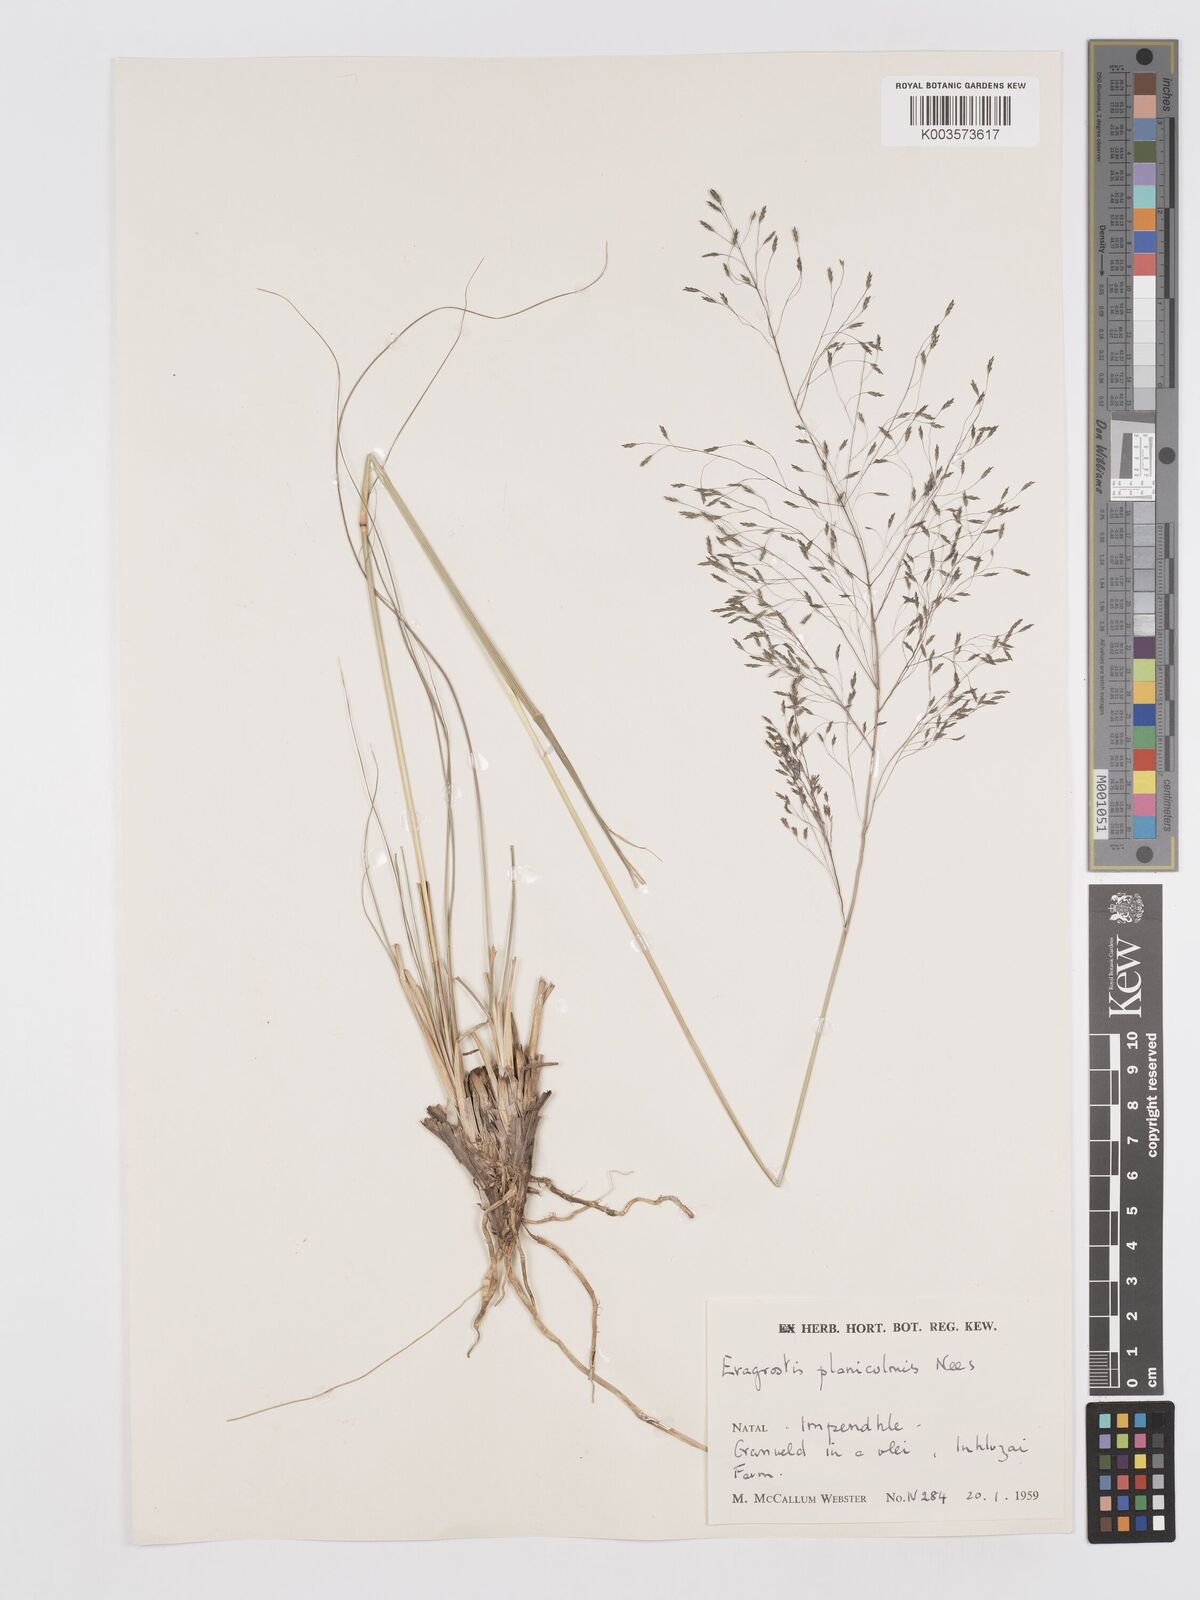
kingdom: Plantae
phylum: Tracheophyta
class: Liliopsida
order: Poales
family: Poaceae
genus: Eragrostis
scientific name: Eragrostis planiculmis
